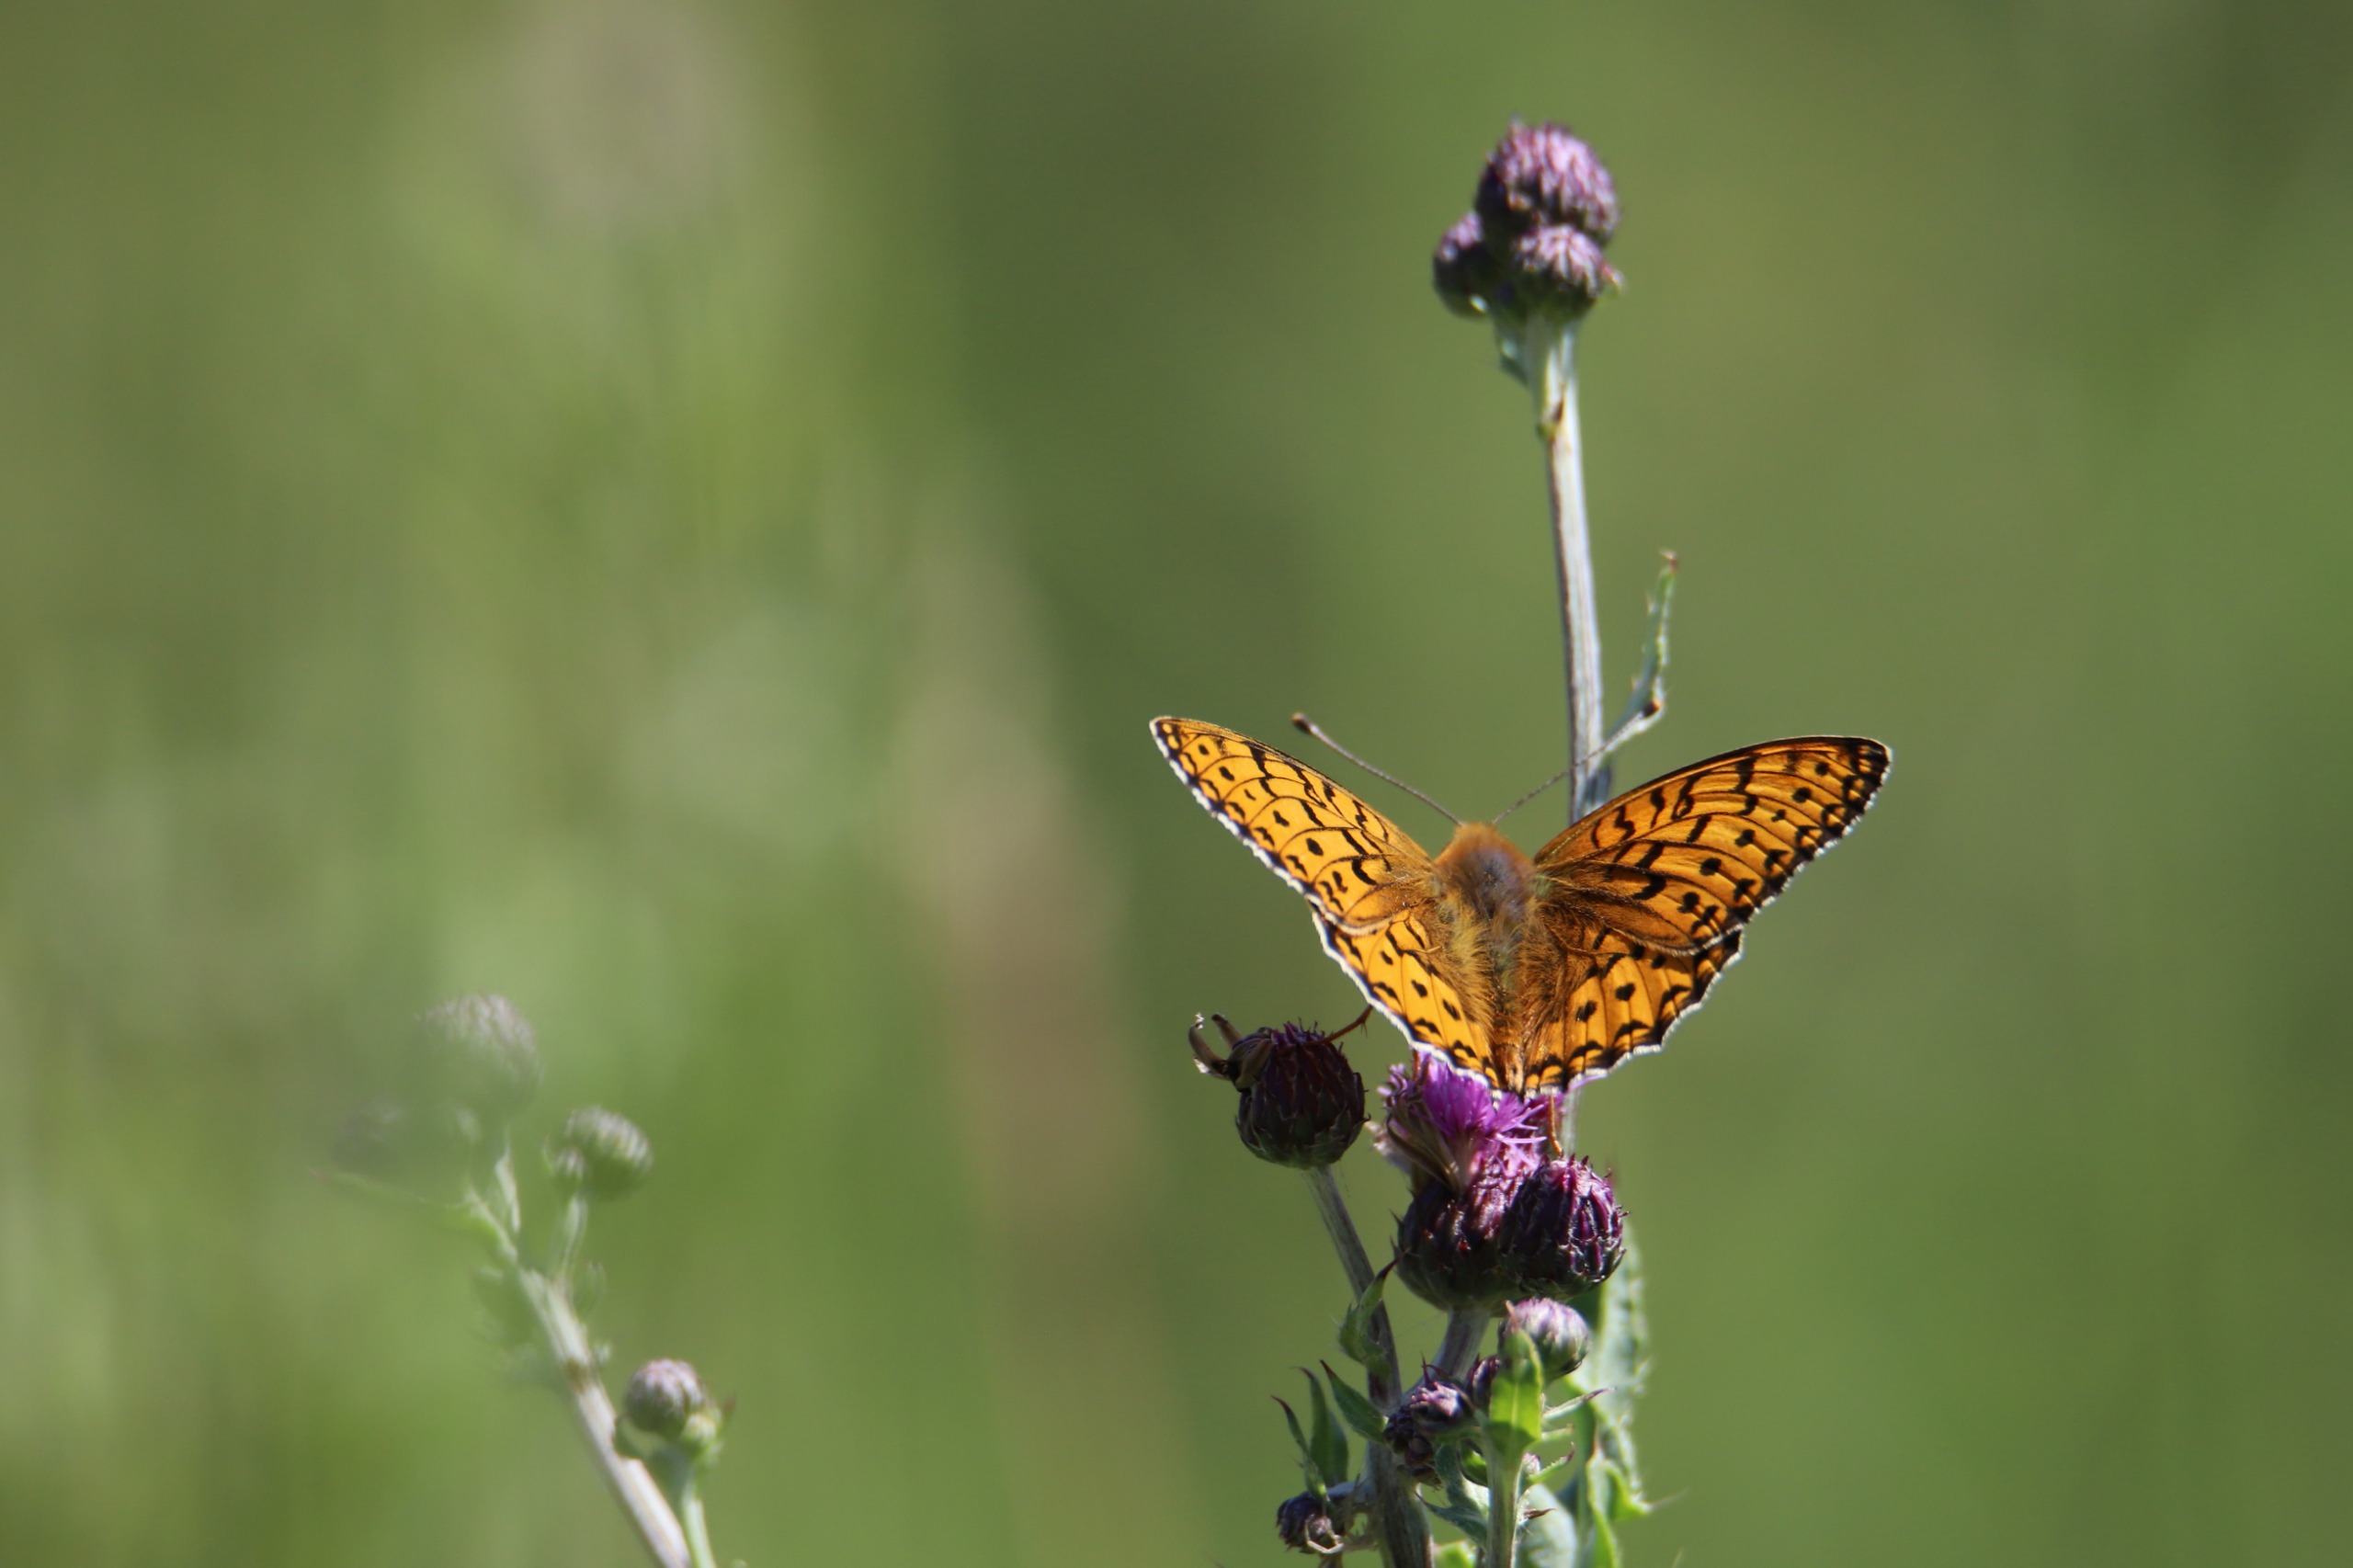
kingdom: Animalia
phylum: Arthropoda
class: Insecta
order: Lepidoptera
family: Nymphalidae
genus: Speyeria
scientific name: Speyeria aglaja
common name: Markperlemorsommerfugl
